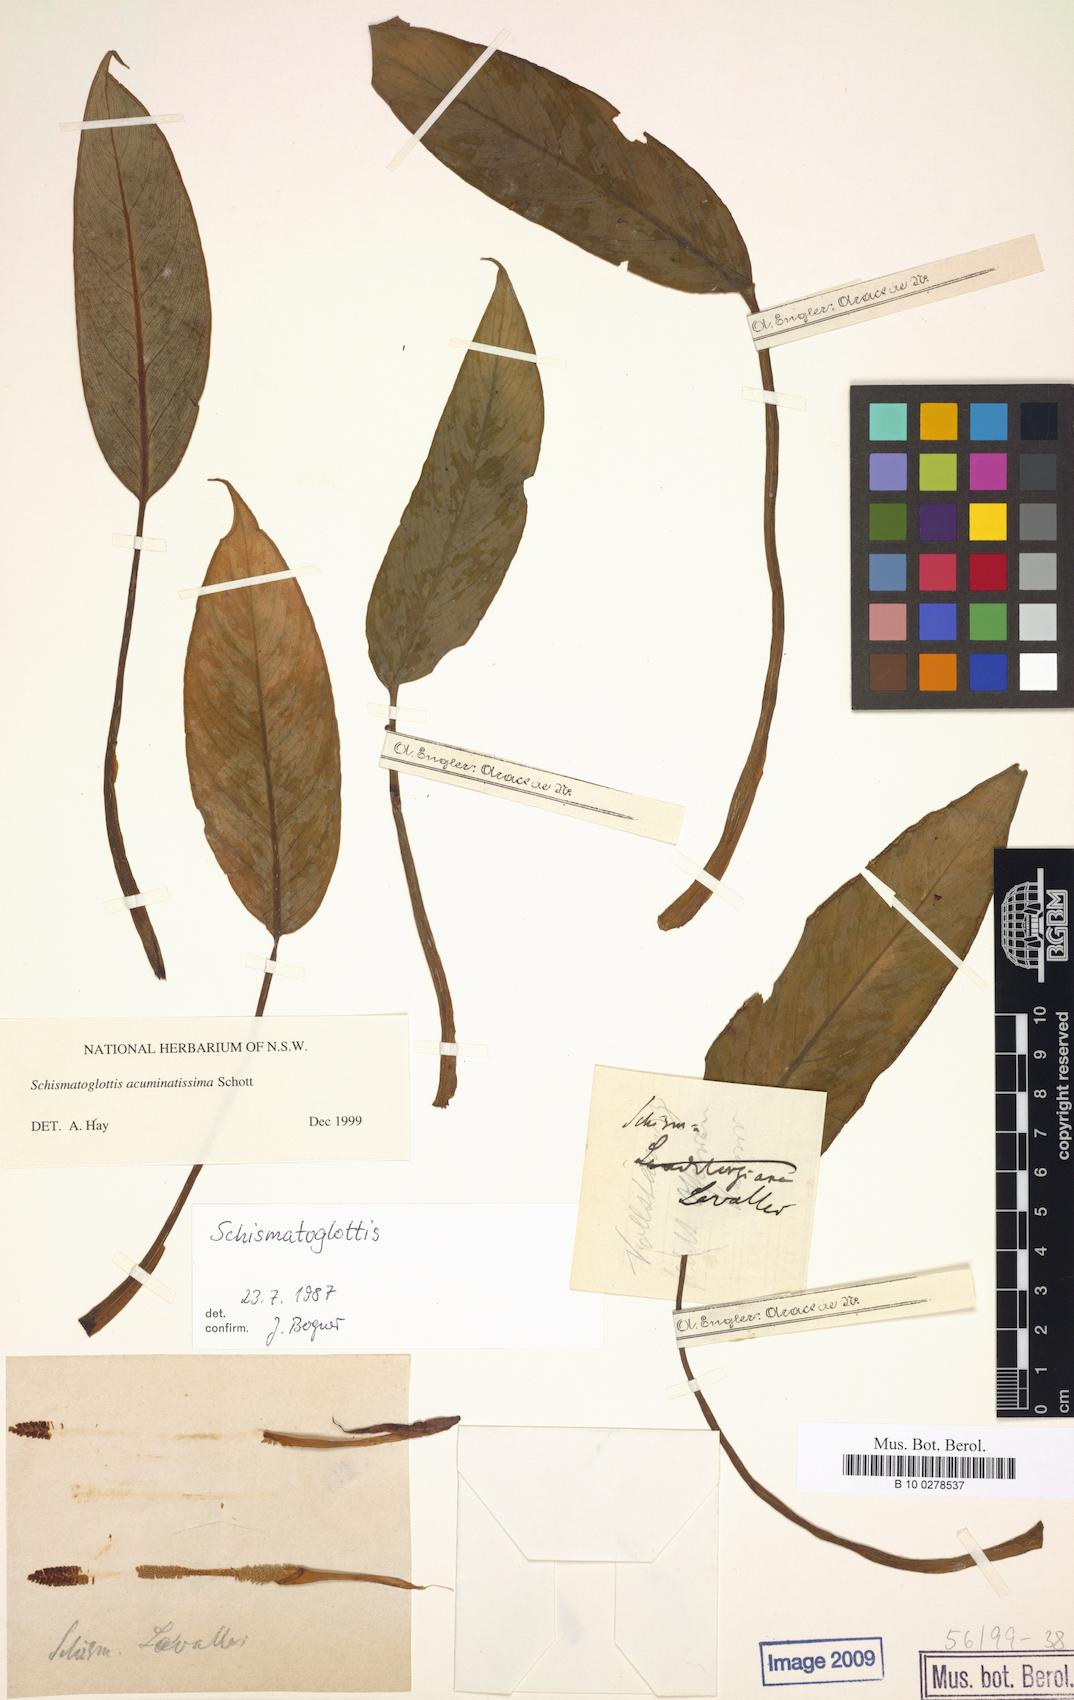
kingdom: Plantae
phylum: Tracheophyta
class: Liliopsida
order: Alismatales
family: Araceae
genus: Apoballis
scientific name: Apoballis acuminatissima
